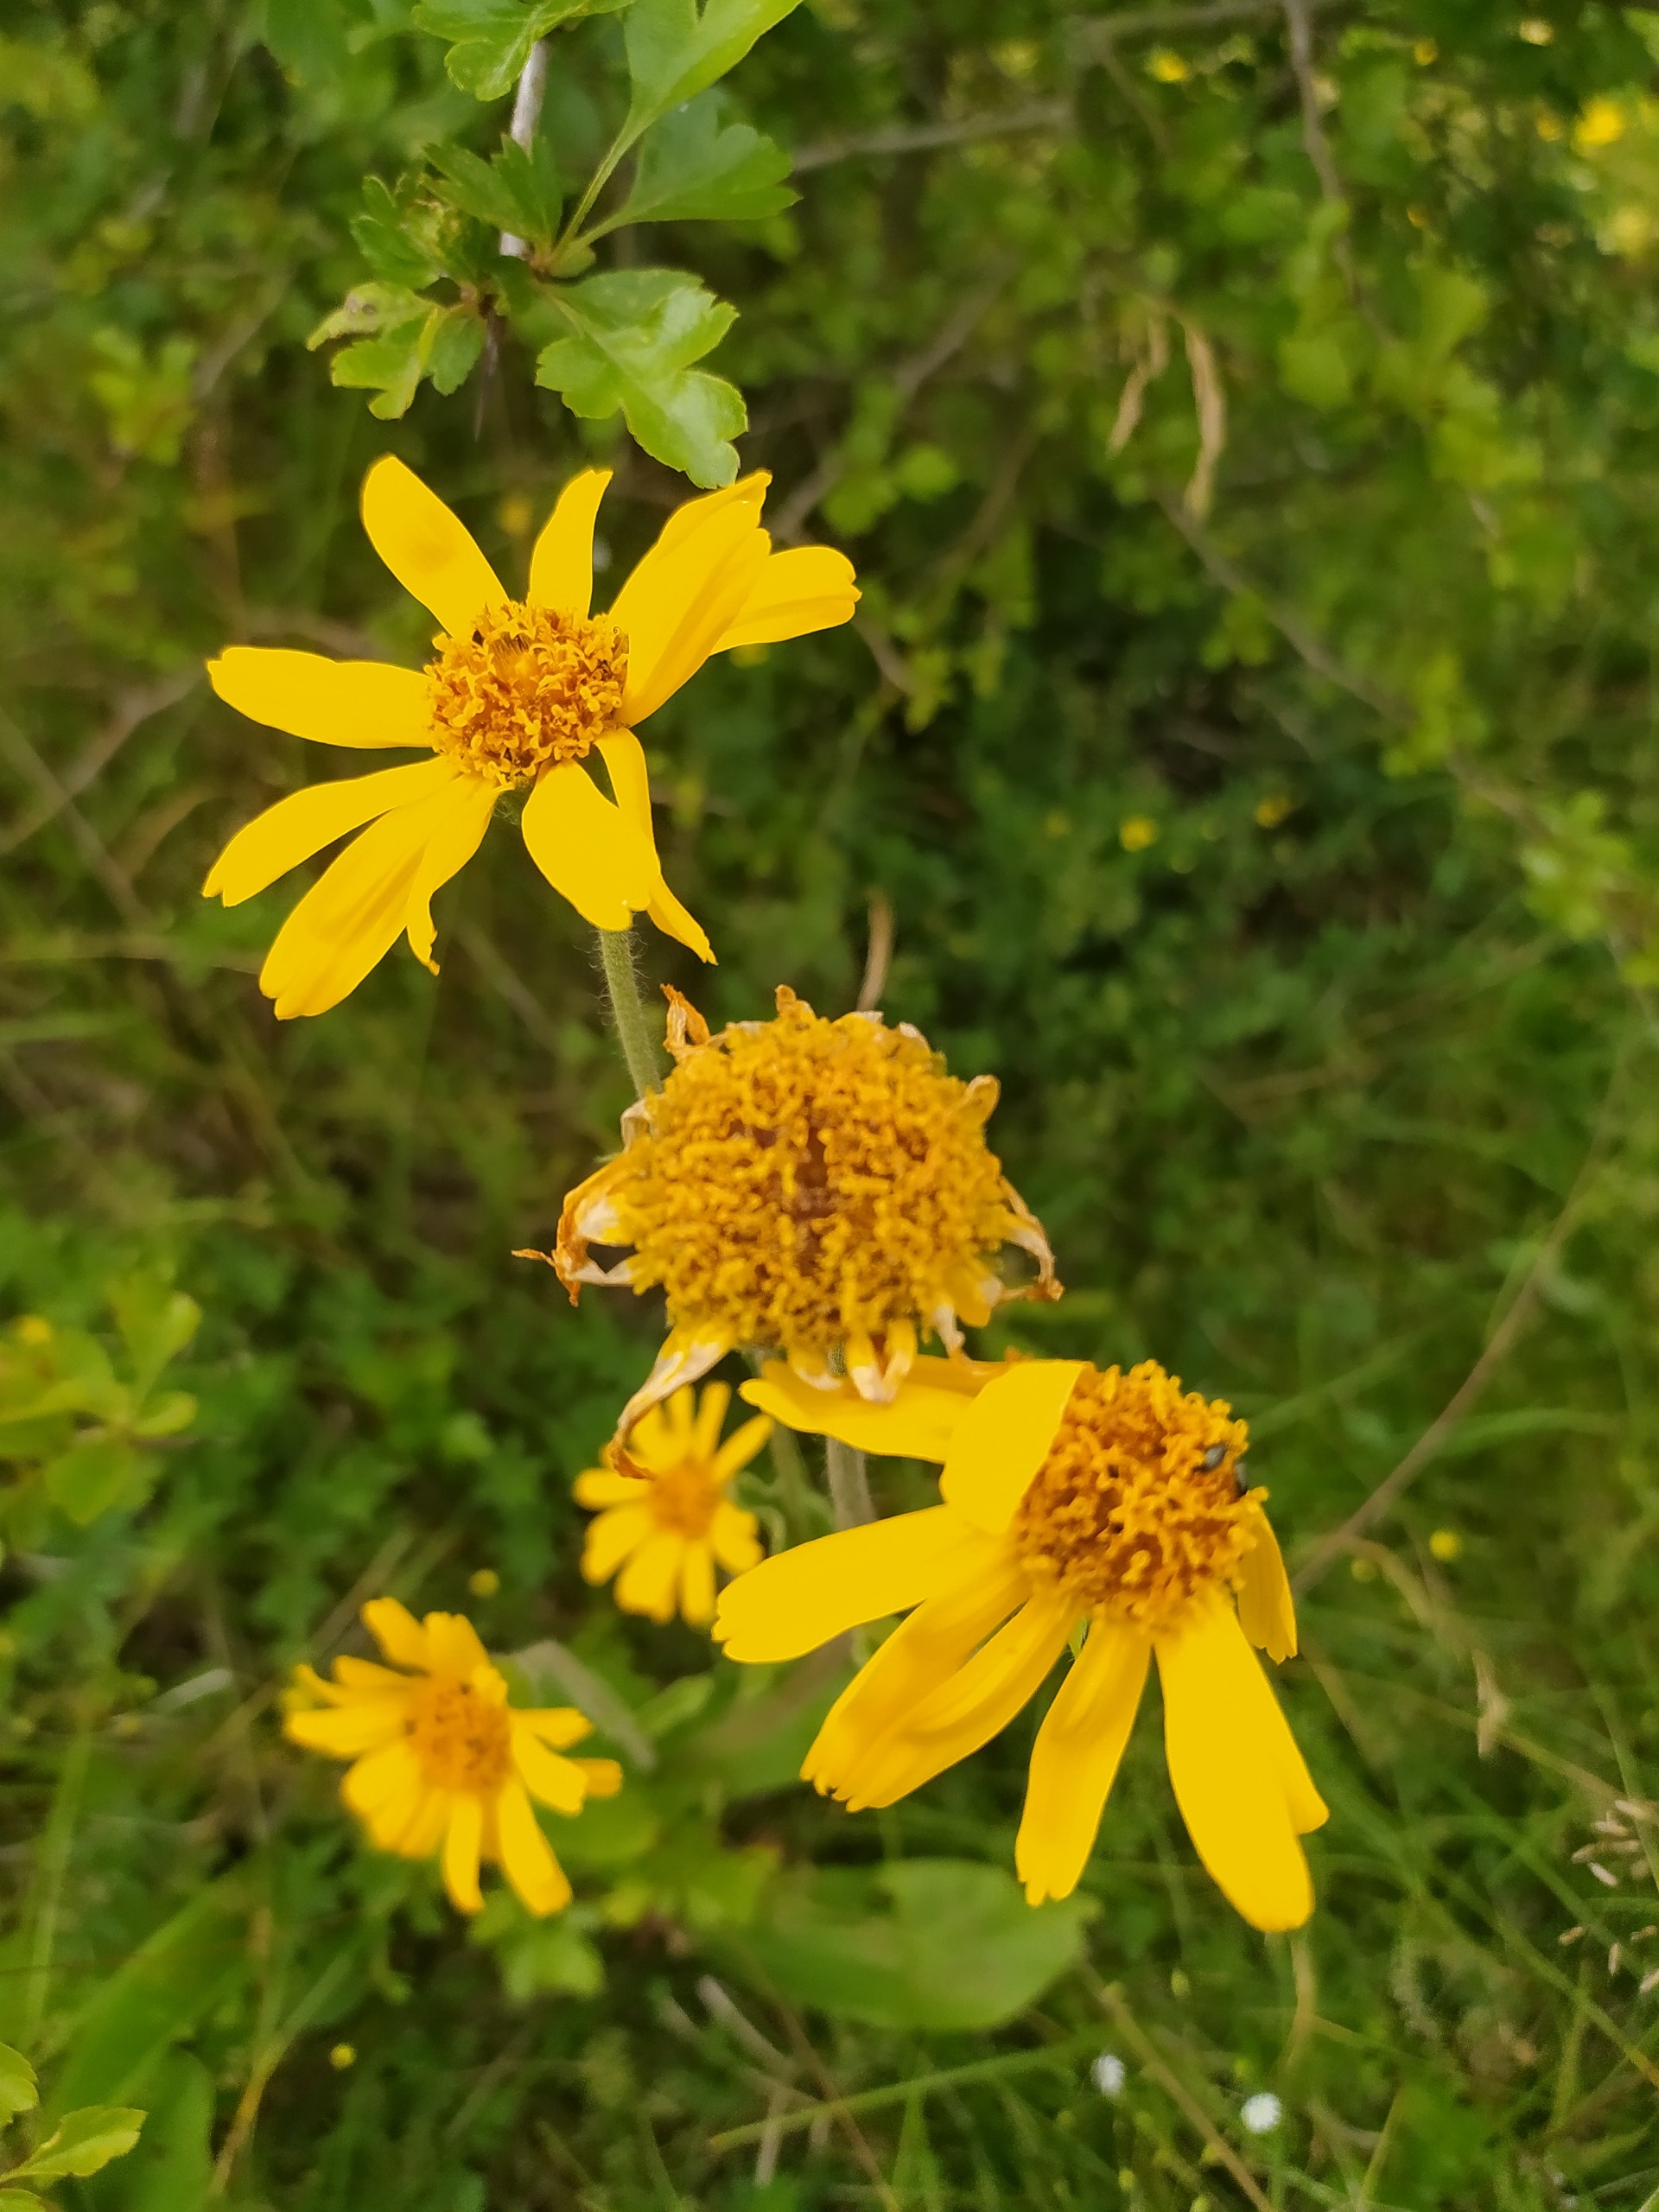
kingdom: Plantae
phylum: Tracheophyta
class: Magnoliopsida
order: Asterales
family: Asteraceae
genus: Arnica
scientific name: Arnica montana
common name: Guldblomme
